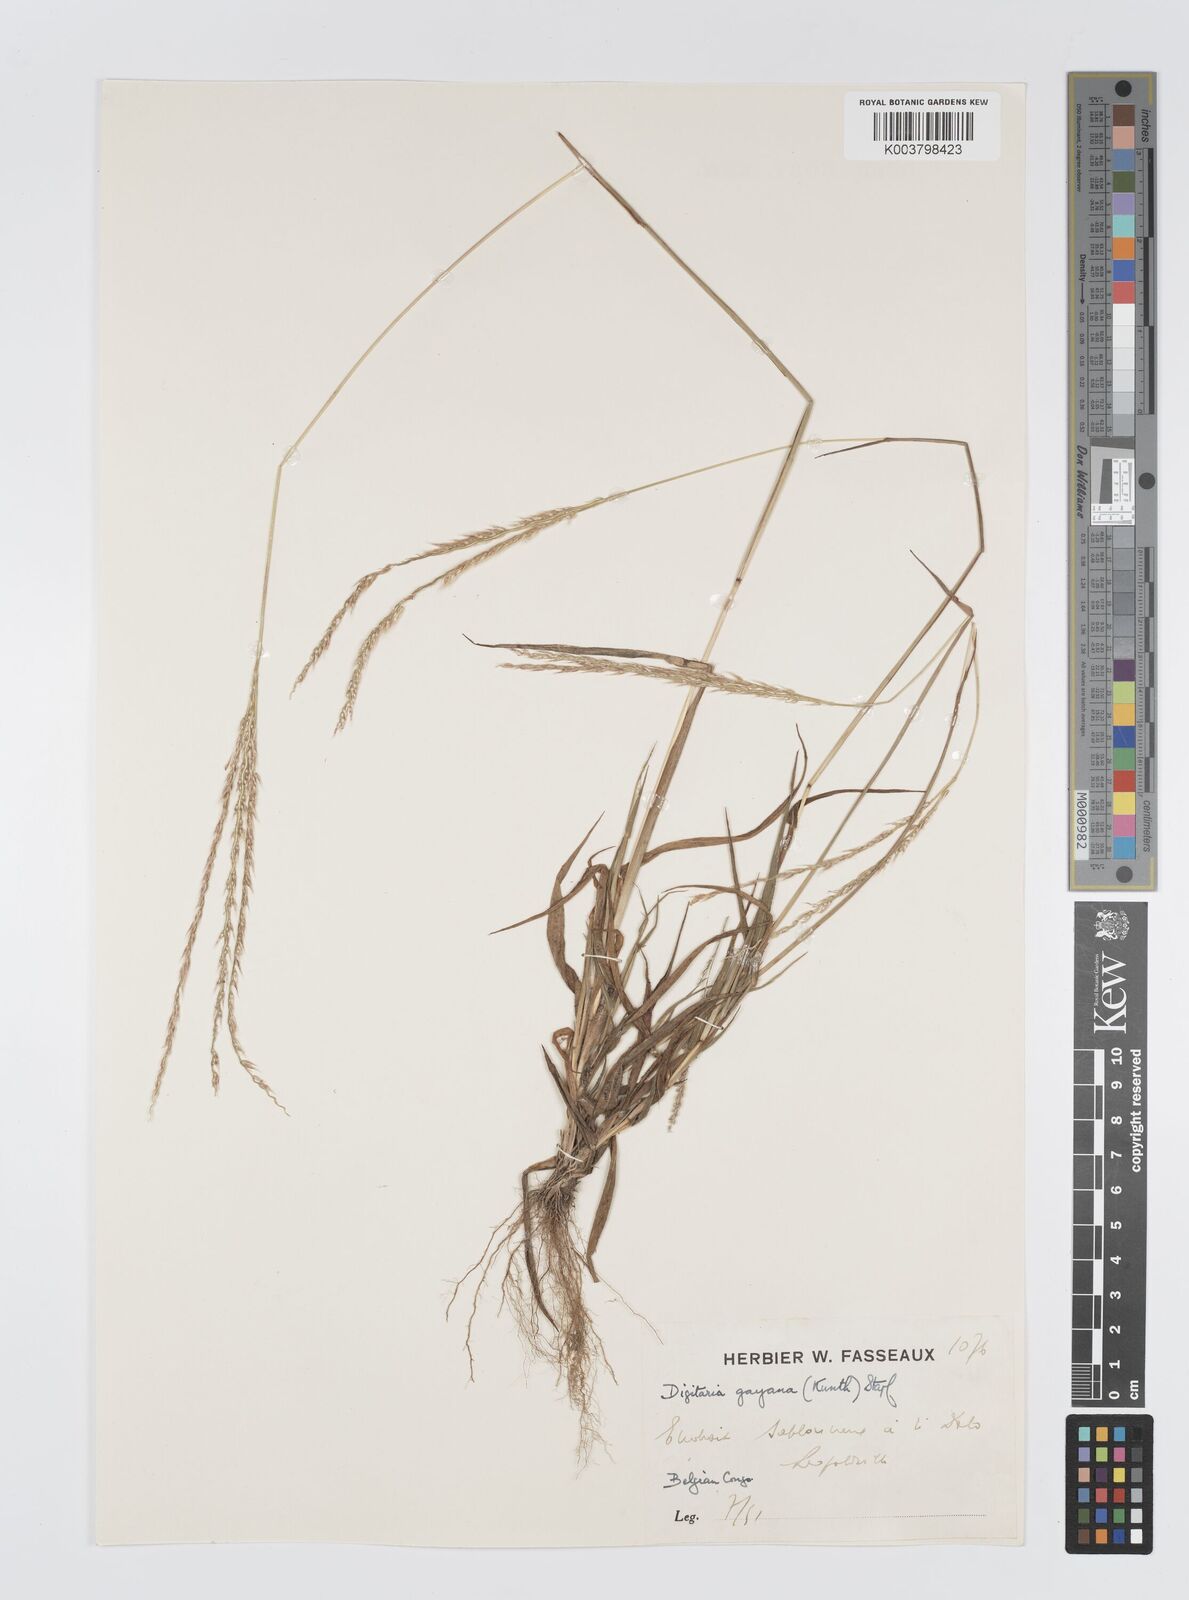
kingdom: Plantae
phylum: Tracheophyta
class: Liliopsida
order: Poales
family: Poaceae
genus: Digitaria
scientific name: Digitaria gayana
